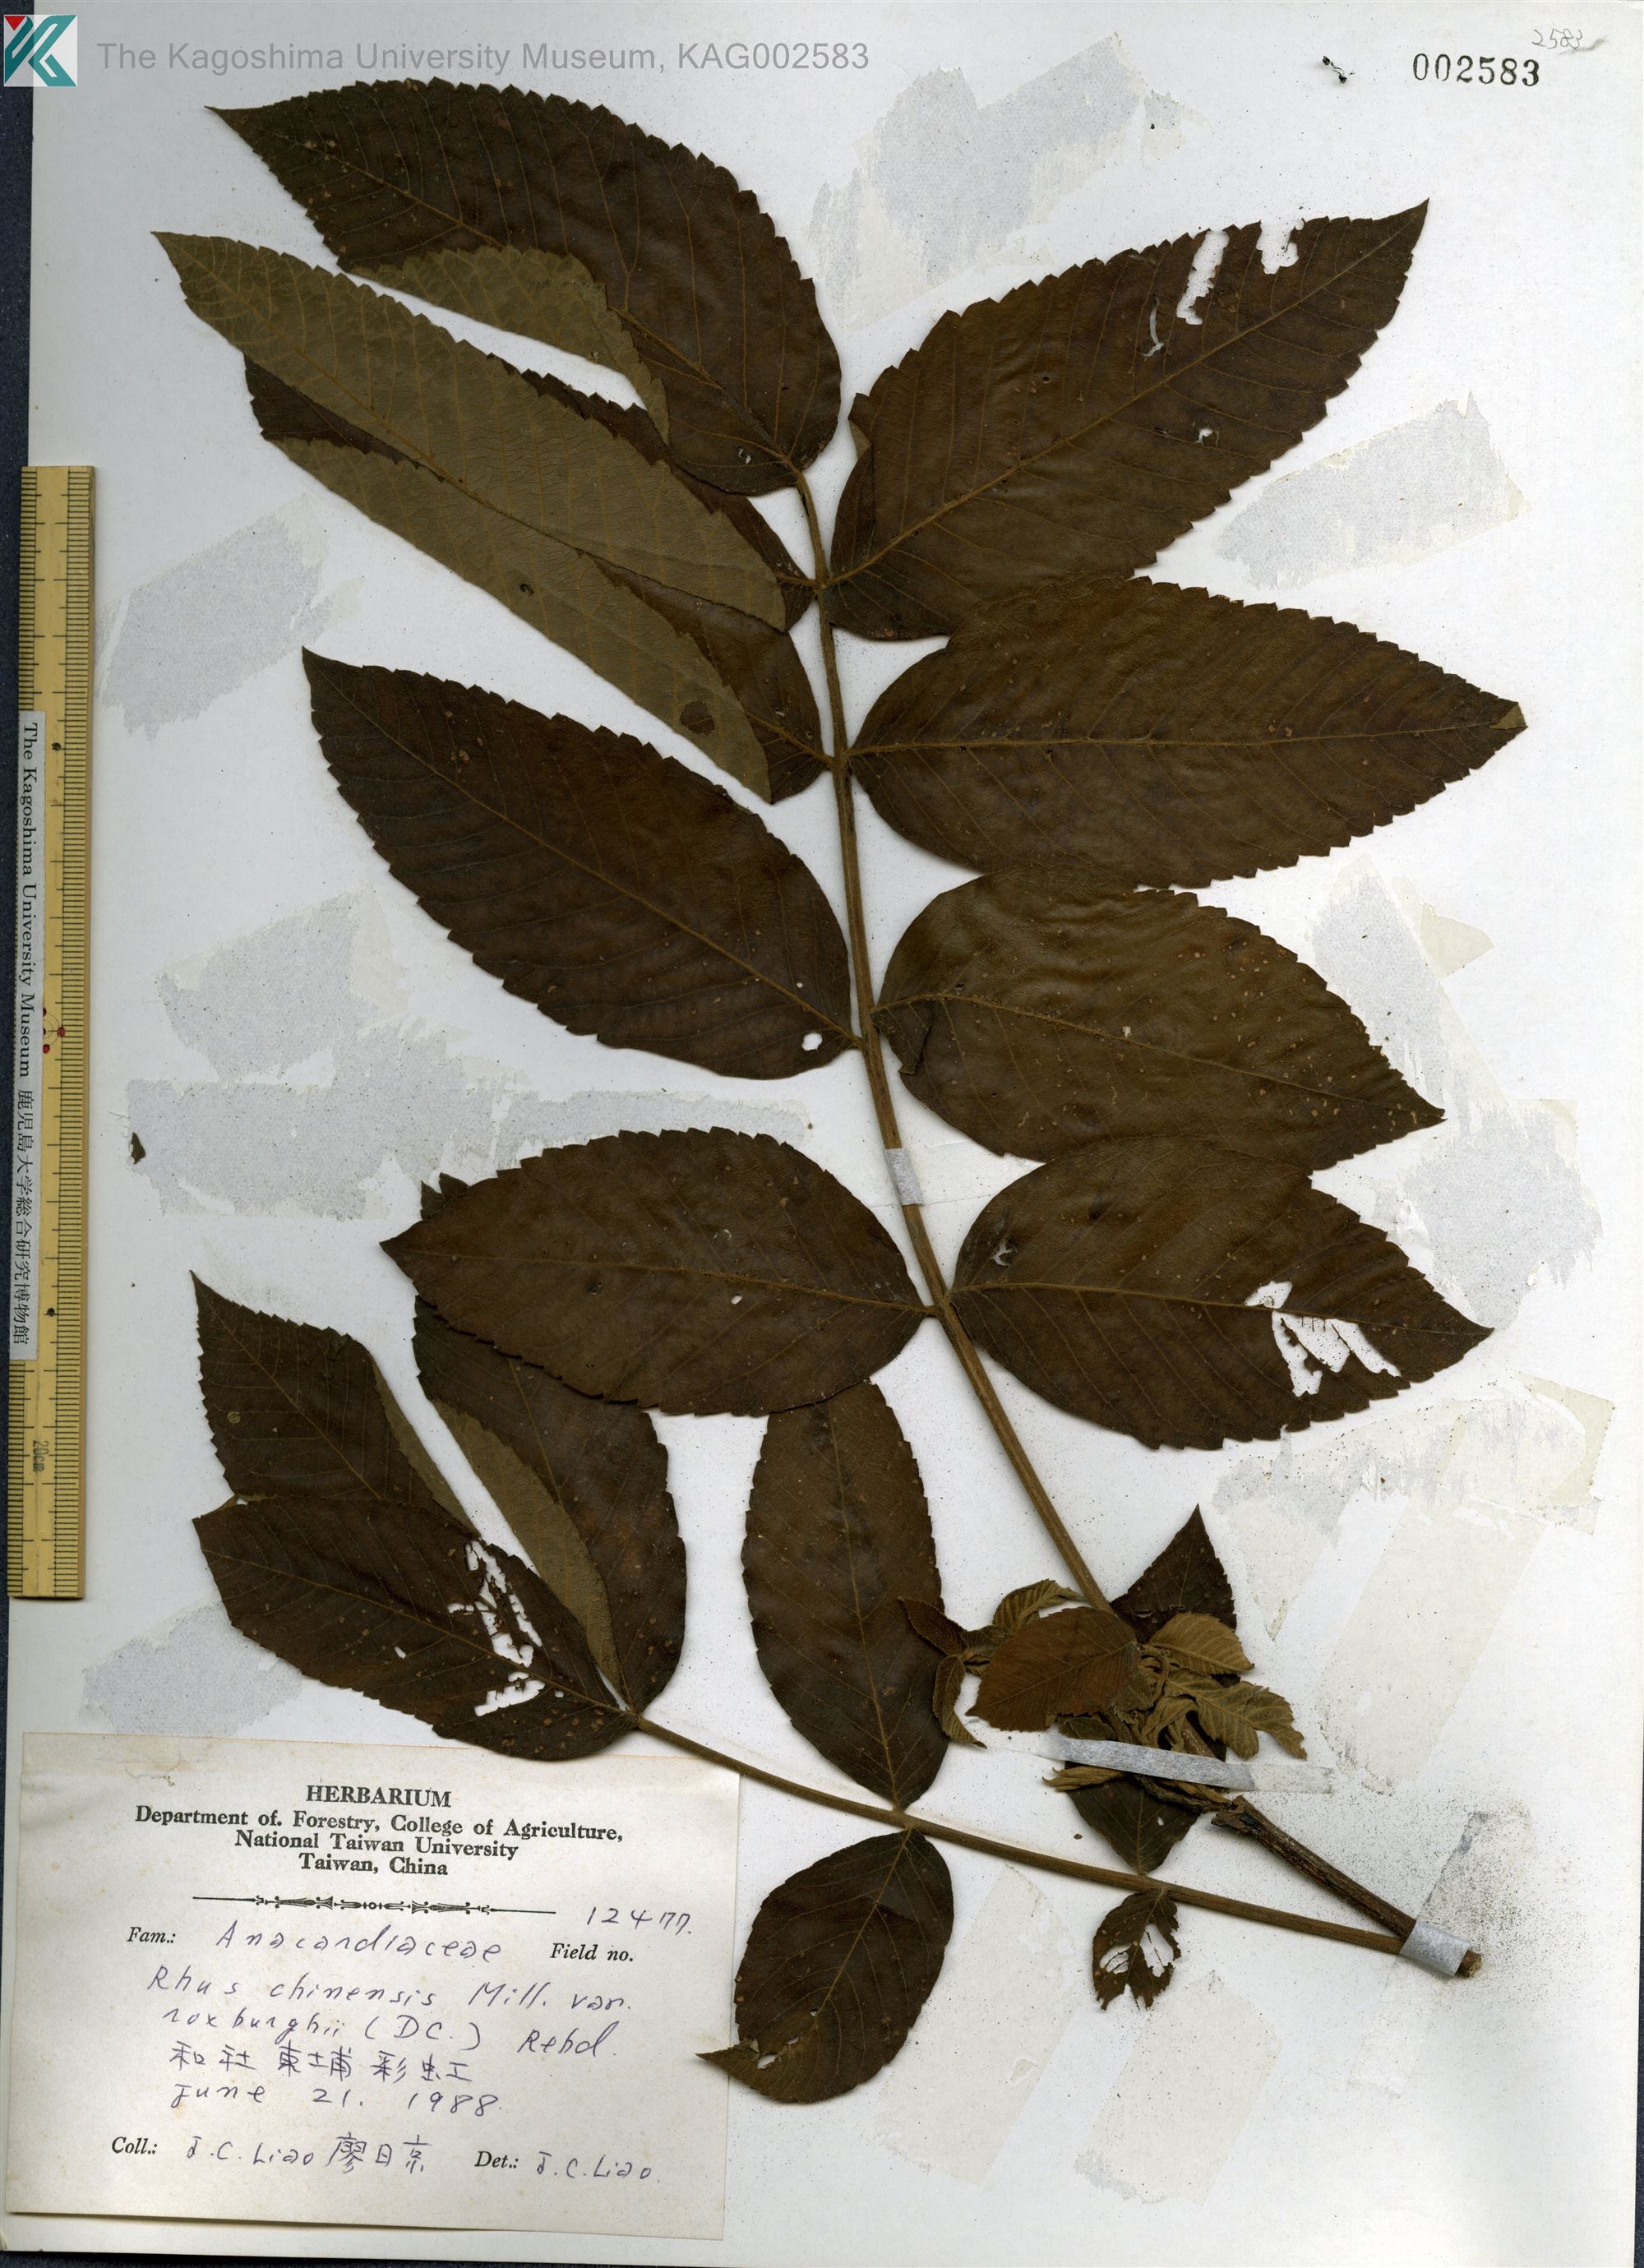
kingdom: Plantae
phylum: Tracheophyta
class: Magnoliopsida
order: Sapindales
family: Anacardiaceae
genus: Rhus
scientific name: Rhus chinensis
